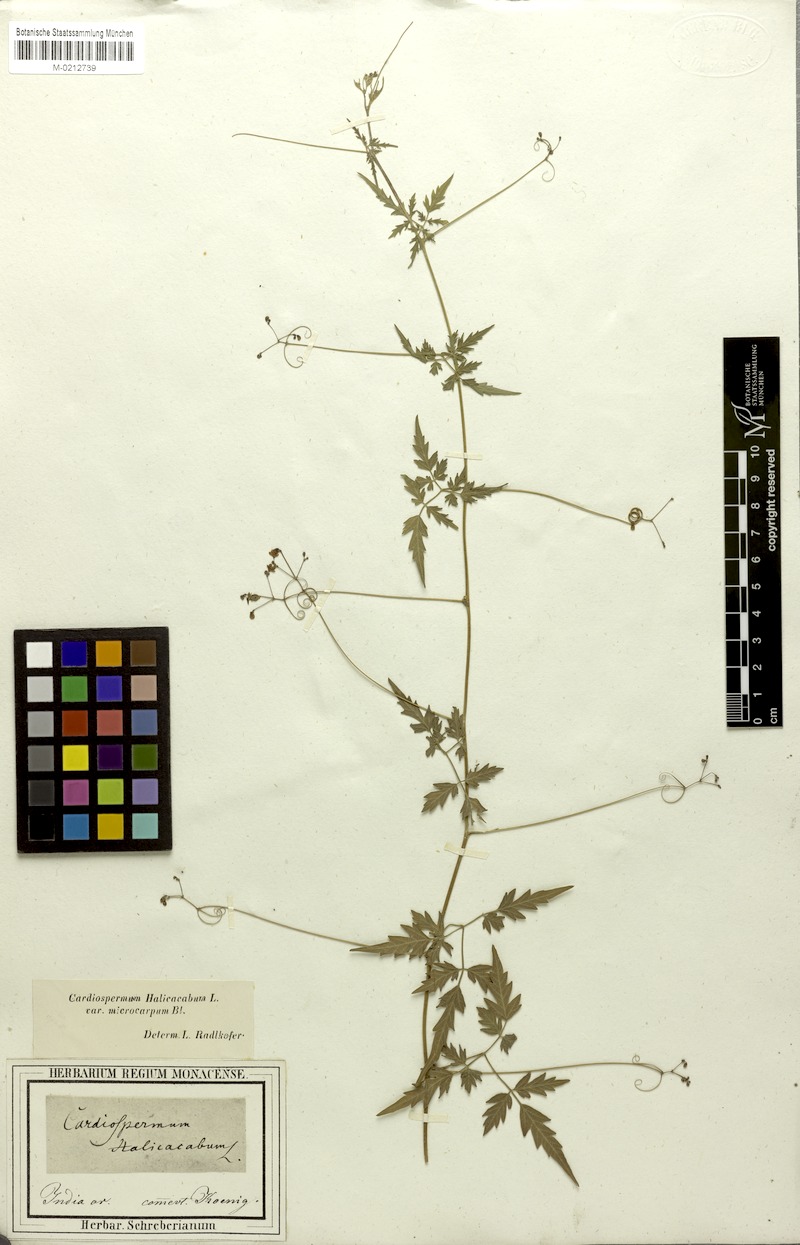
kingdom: Plantae
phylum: Tracheophyta
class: Magnoliopsida
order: Sapindales
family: Sapindaceae
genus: Cardiospermum
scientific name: Cardiospermum microcarpum
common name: Heart seed
